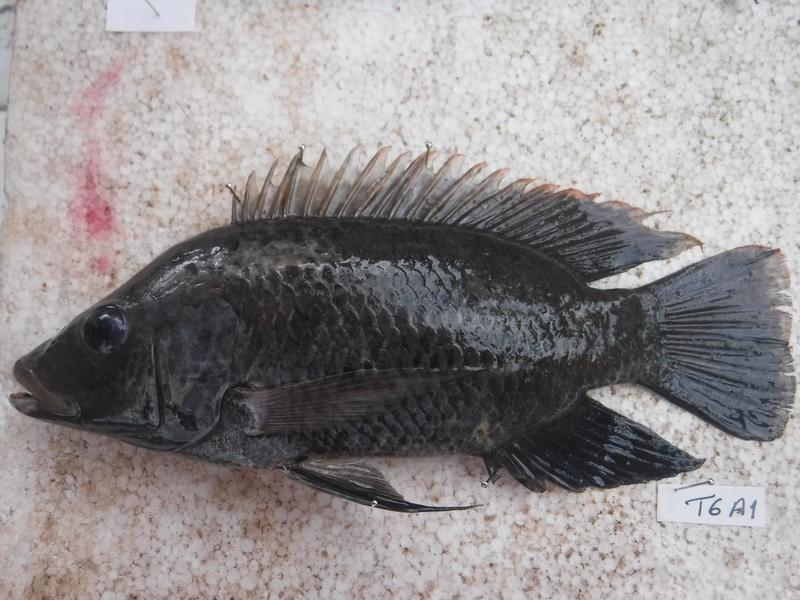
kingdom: Animalia
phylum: Chordata
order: Perciformes
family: Cichlidae
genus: Oreochromis
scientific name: Oreochromis urolepis
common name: Wami tilapia
